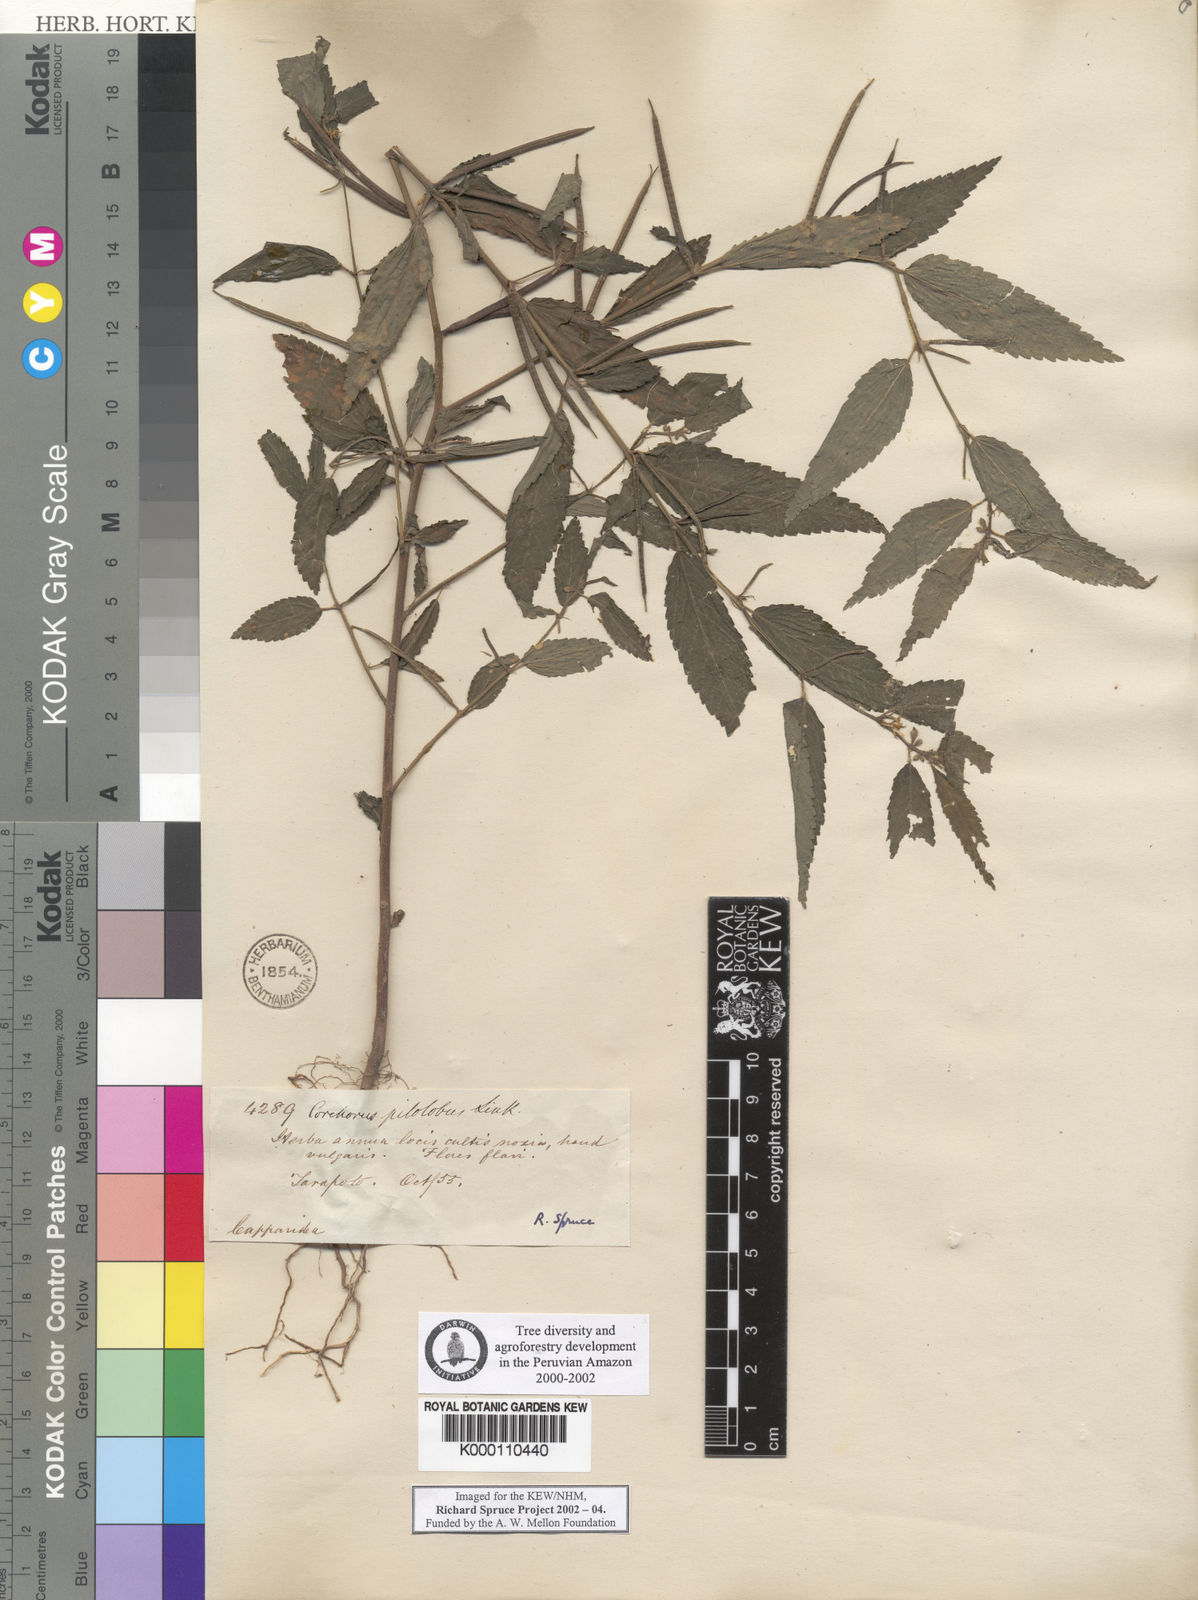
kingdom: Plantae
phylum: Tracheophyta
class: Magnoliopsida
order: Malvales
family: Malvaceae
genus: Corchorus
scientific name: Corchorus orinocensis
